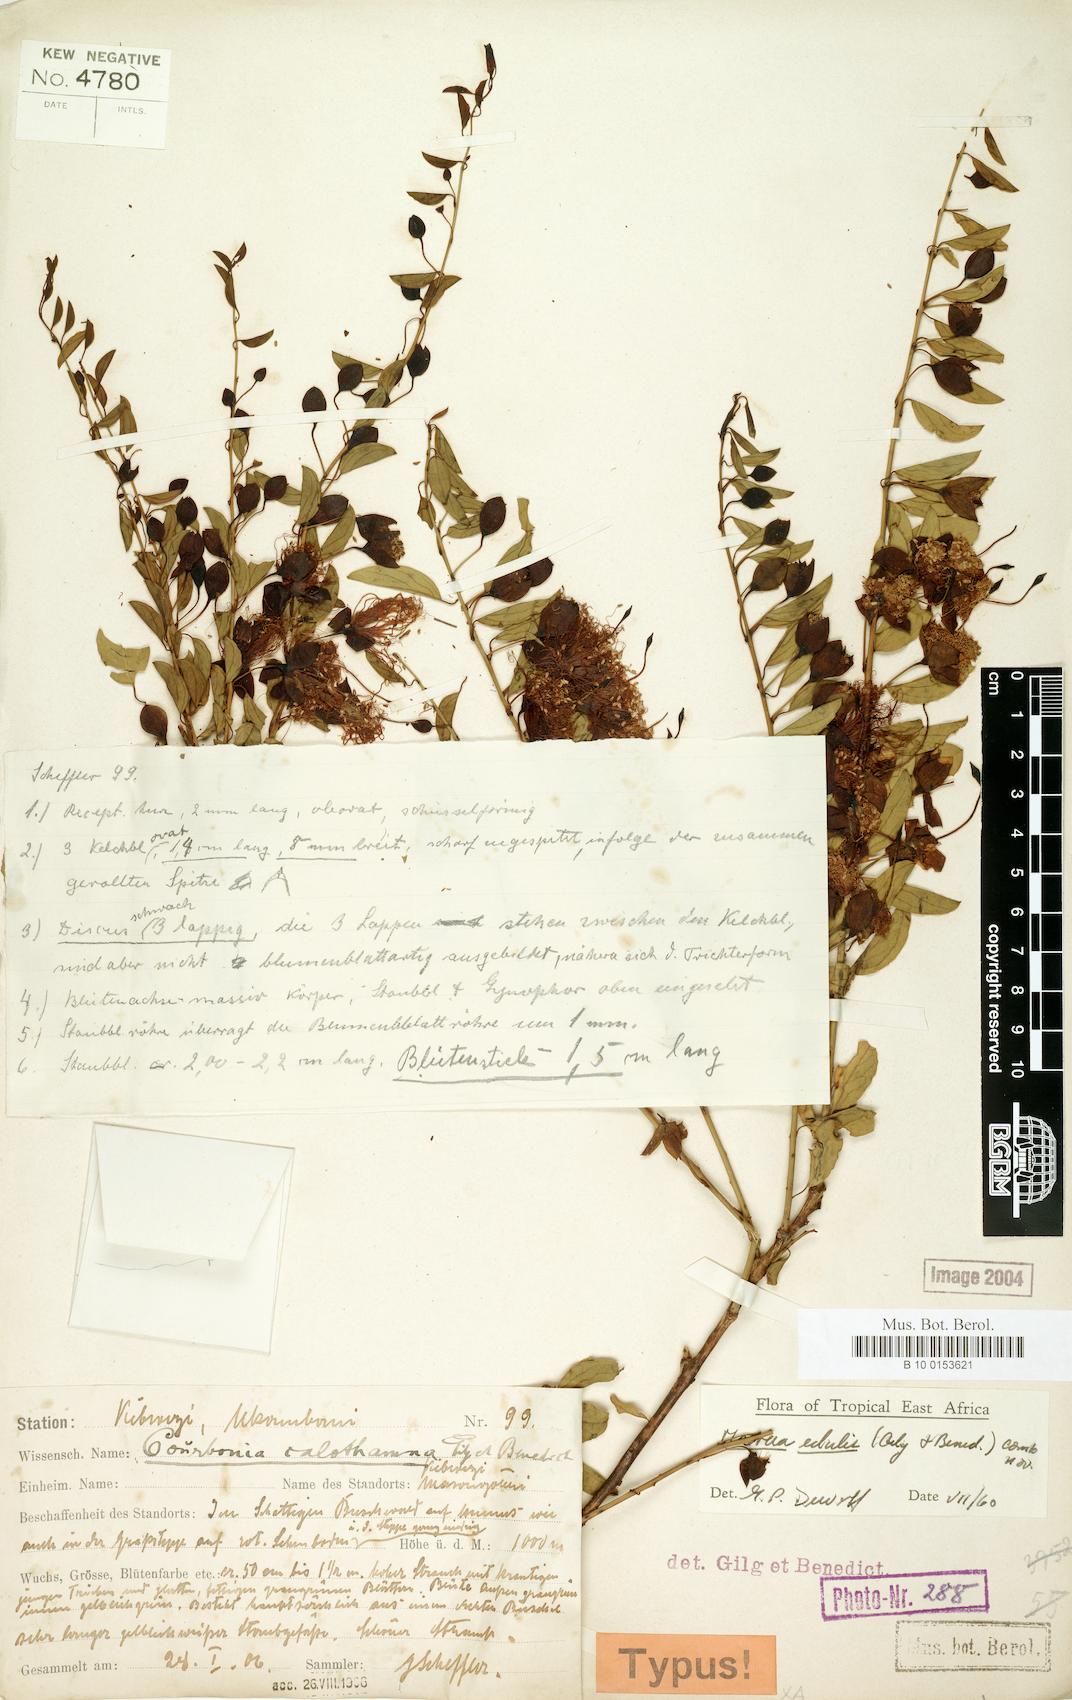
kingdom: Plantae
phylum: Tracheophyta
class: Magnoliopsida
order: Brassicales
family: Capparaceae
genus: Maerua
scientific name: Maerua edulis
